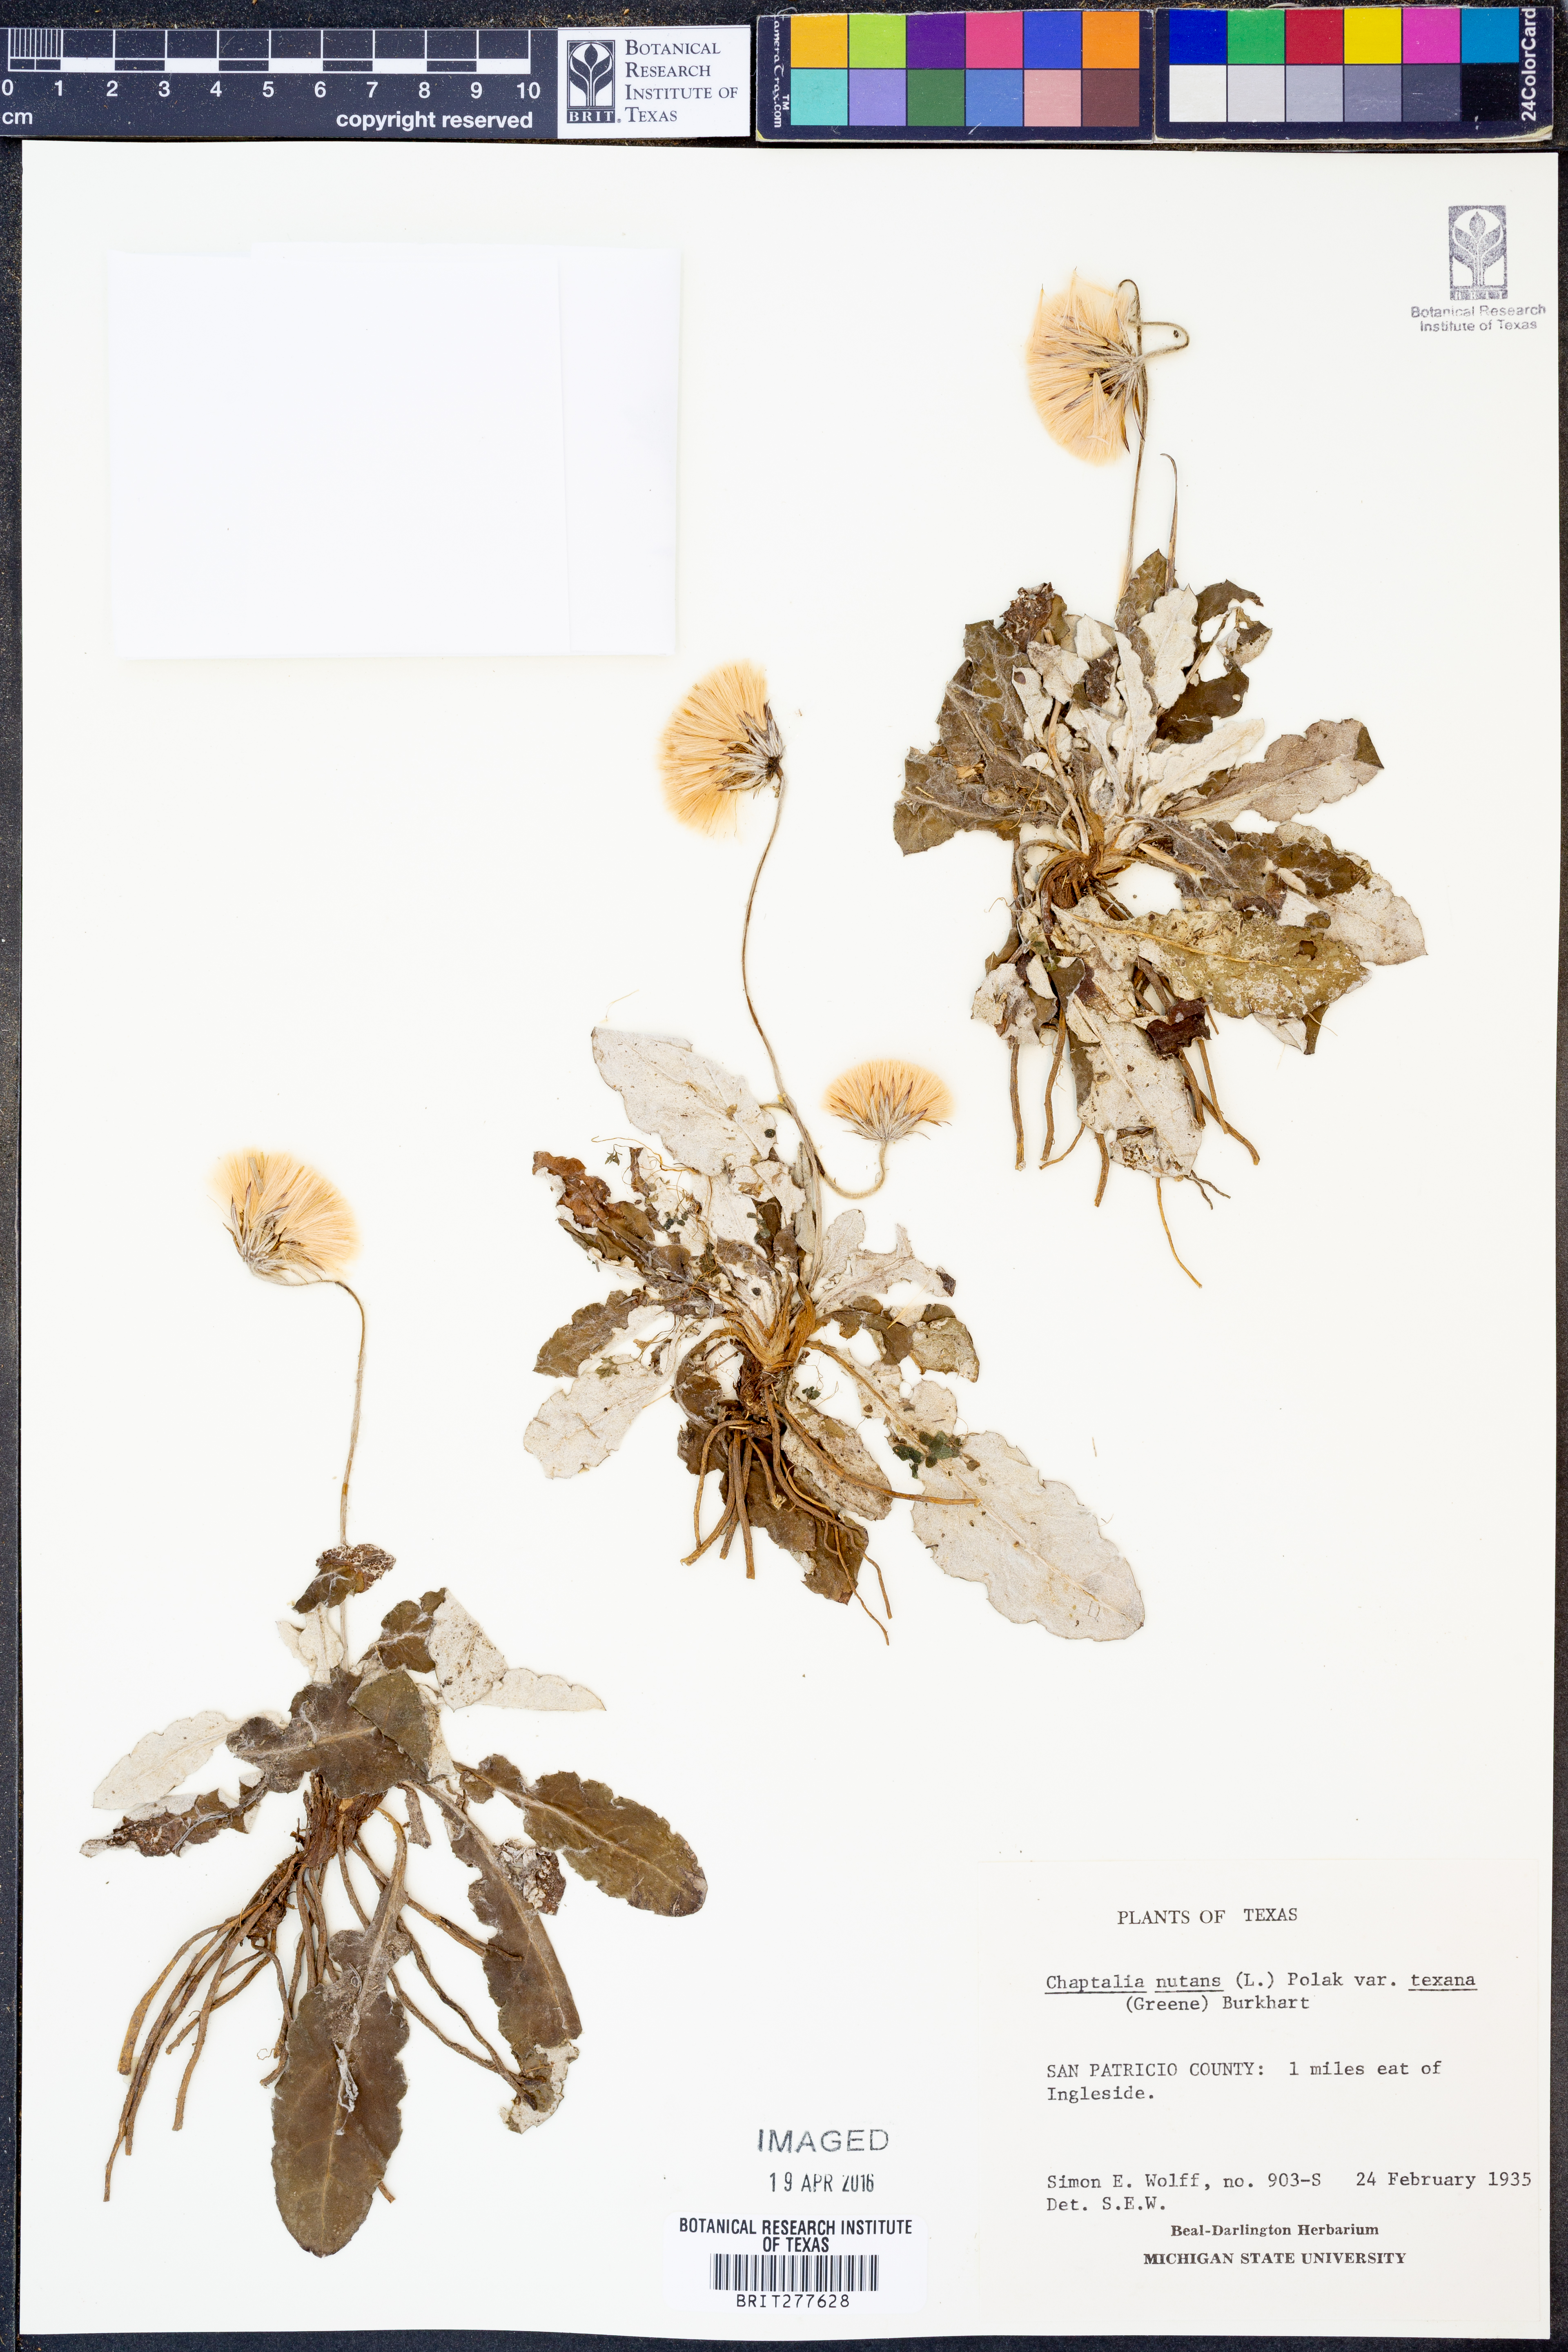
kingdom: Plantae
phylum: Tracheophyta
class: Magnoliopsida
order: Asterales
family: Asteraceae
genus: Chaptalia
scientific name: Chaptalia texana
